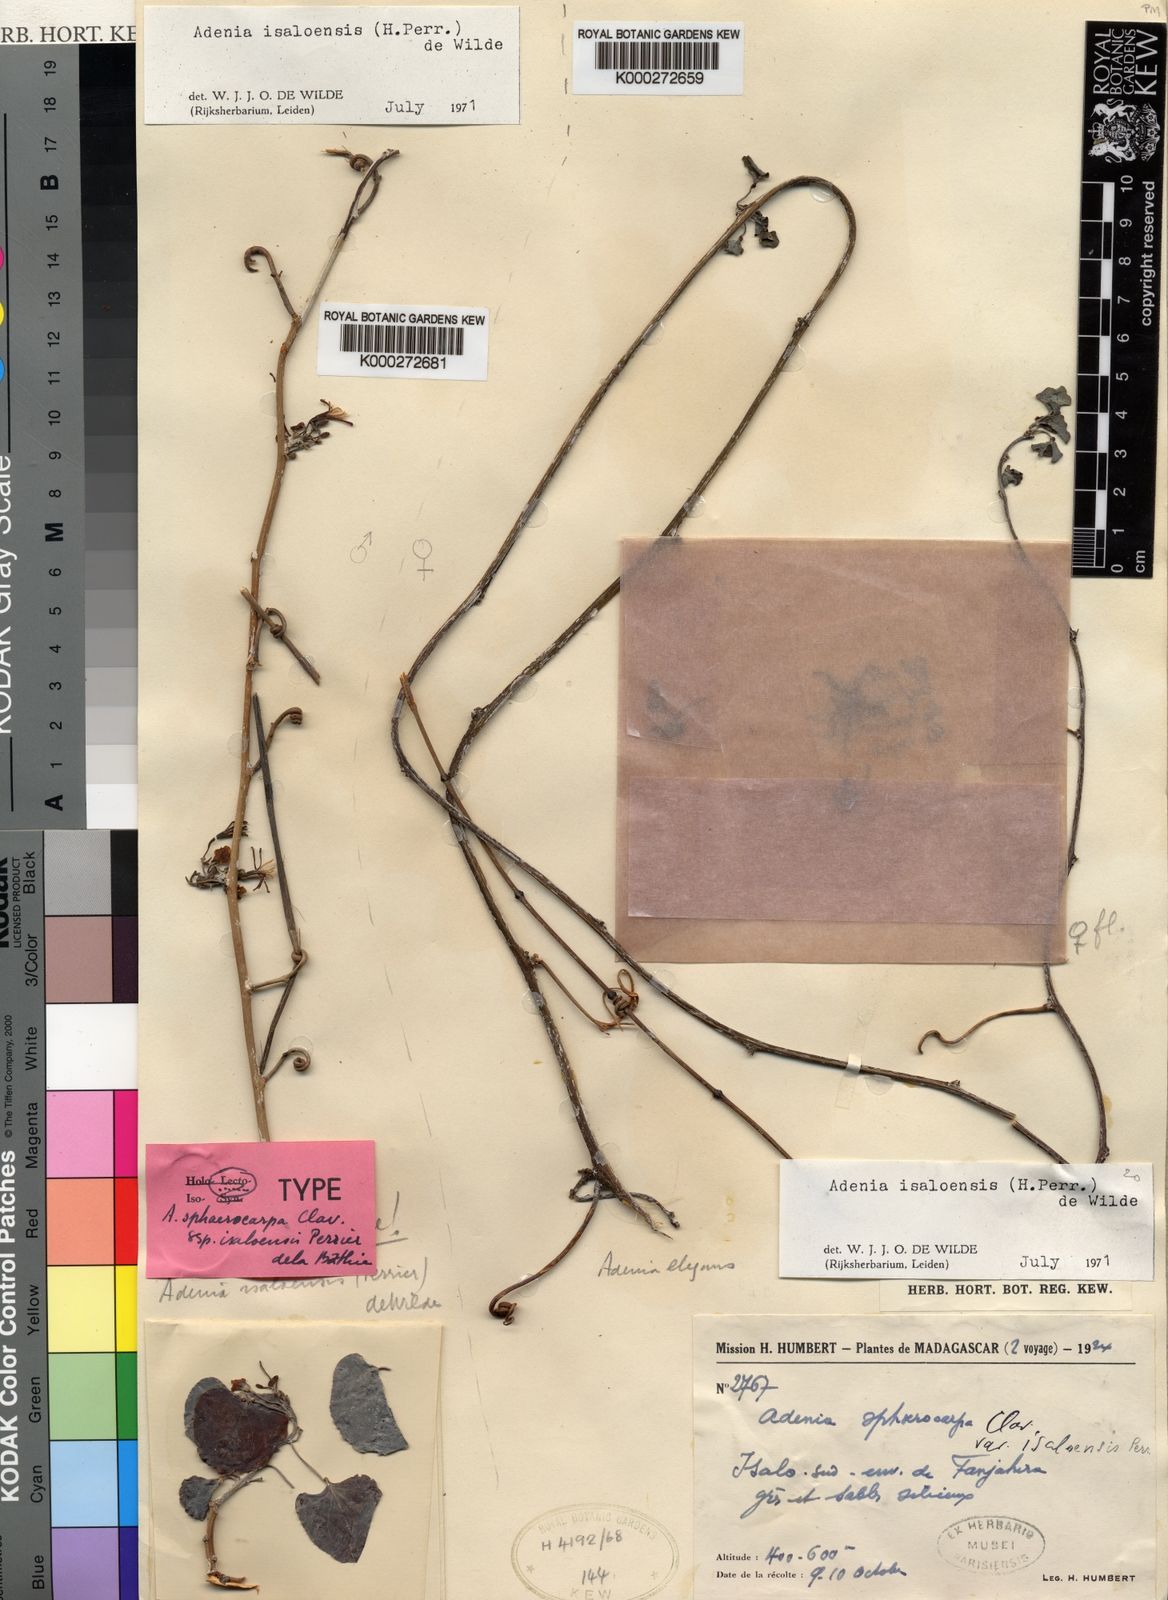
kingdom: Plantae
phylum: Tracheophyta
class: Magnoliopsida
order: Malpighiales
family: Passifloraceae
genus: Adenia
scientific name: Adenia isaloensis
